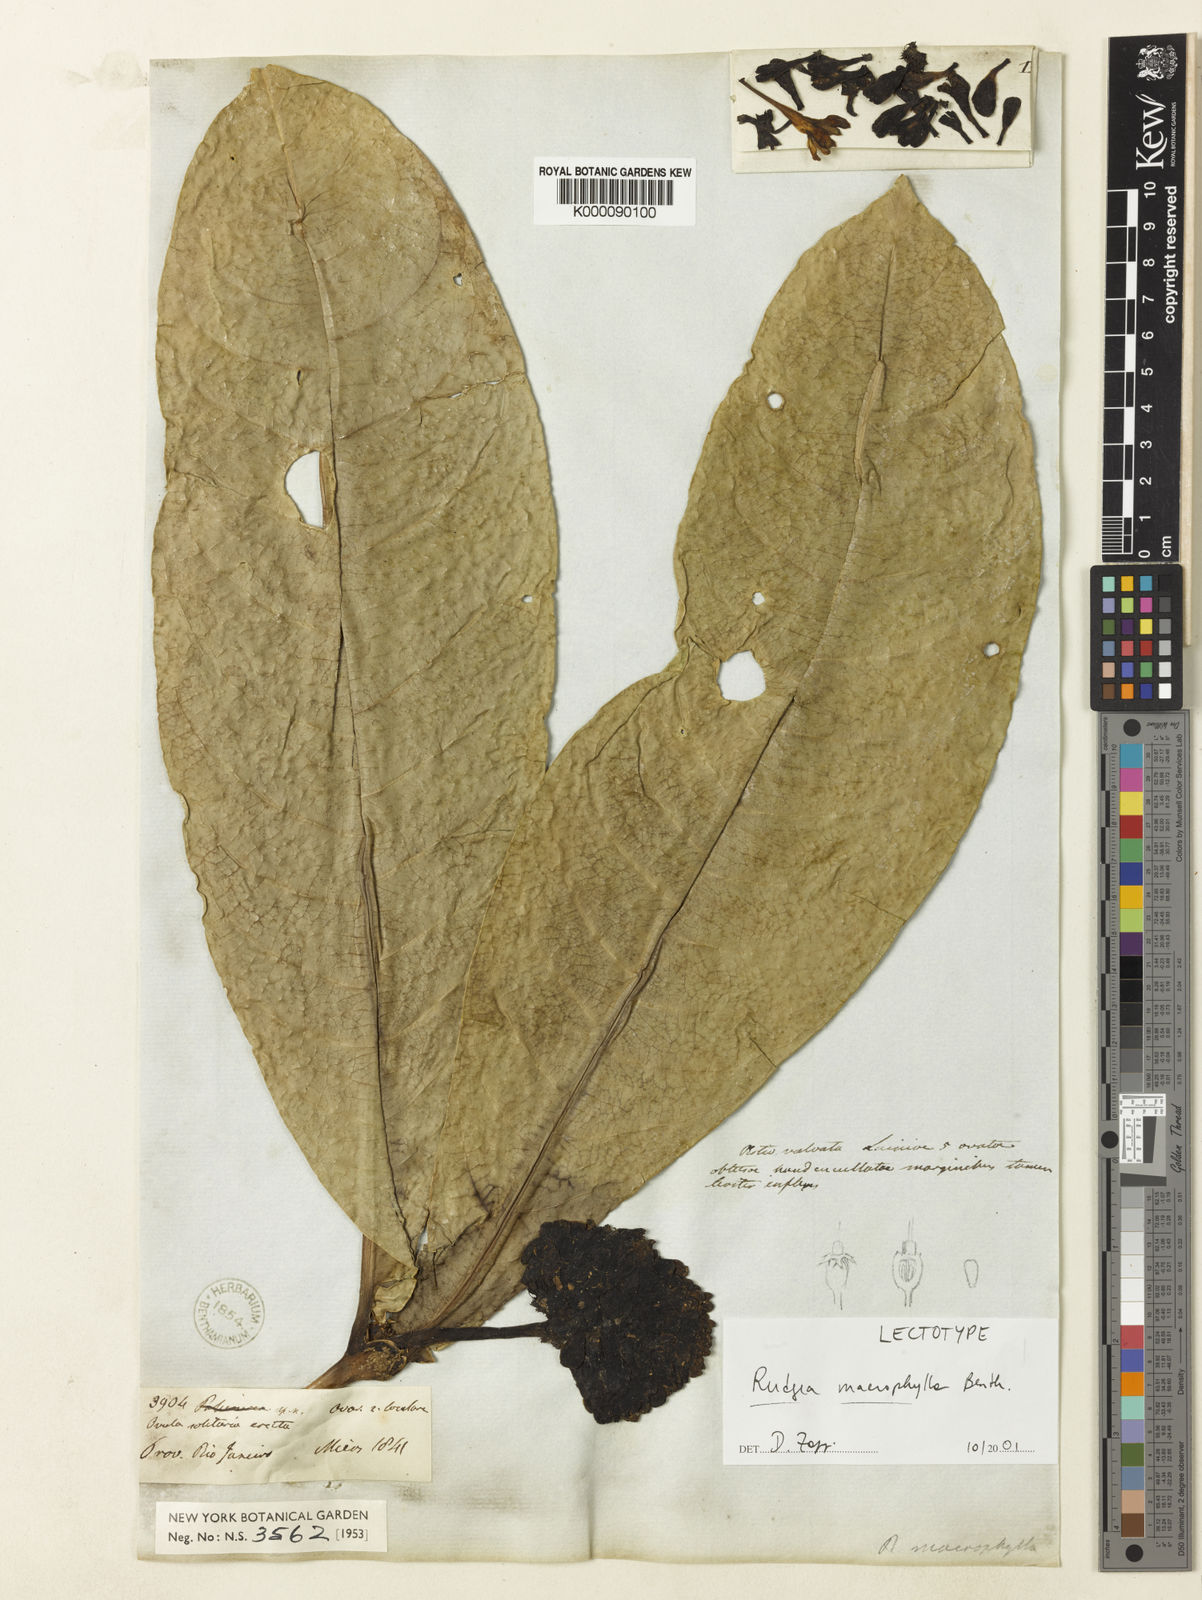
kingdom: Plantae
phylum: Tracheophyta
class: Magnoliopsida
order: Gentianales
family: Rubiaceae
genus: Rudgea
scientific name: Rudgea macrophylla
